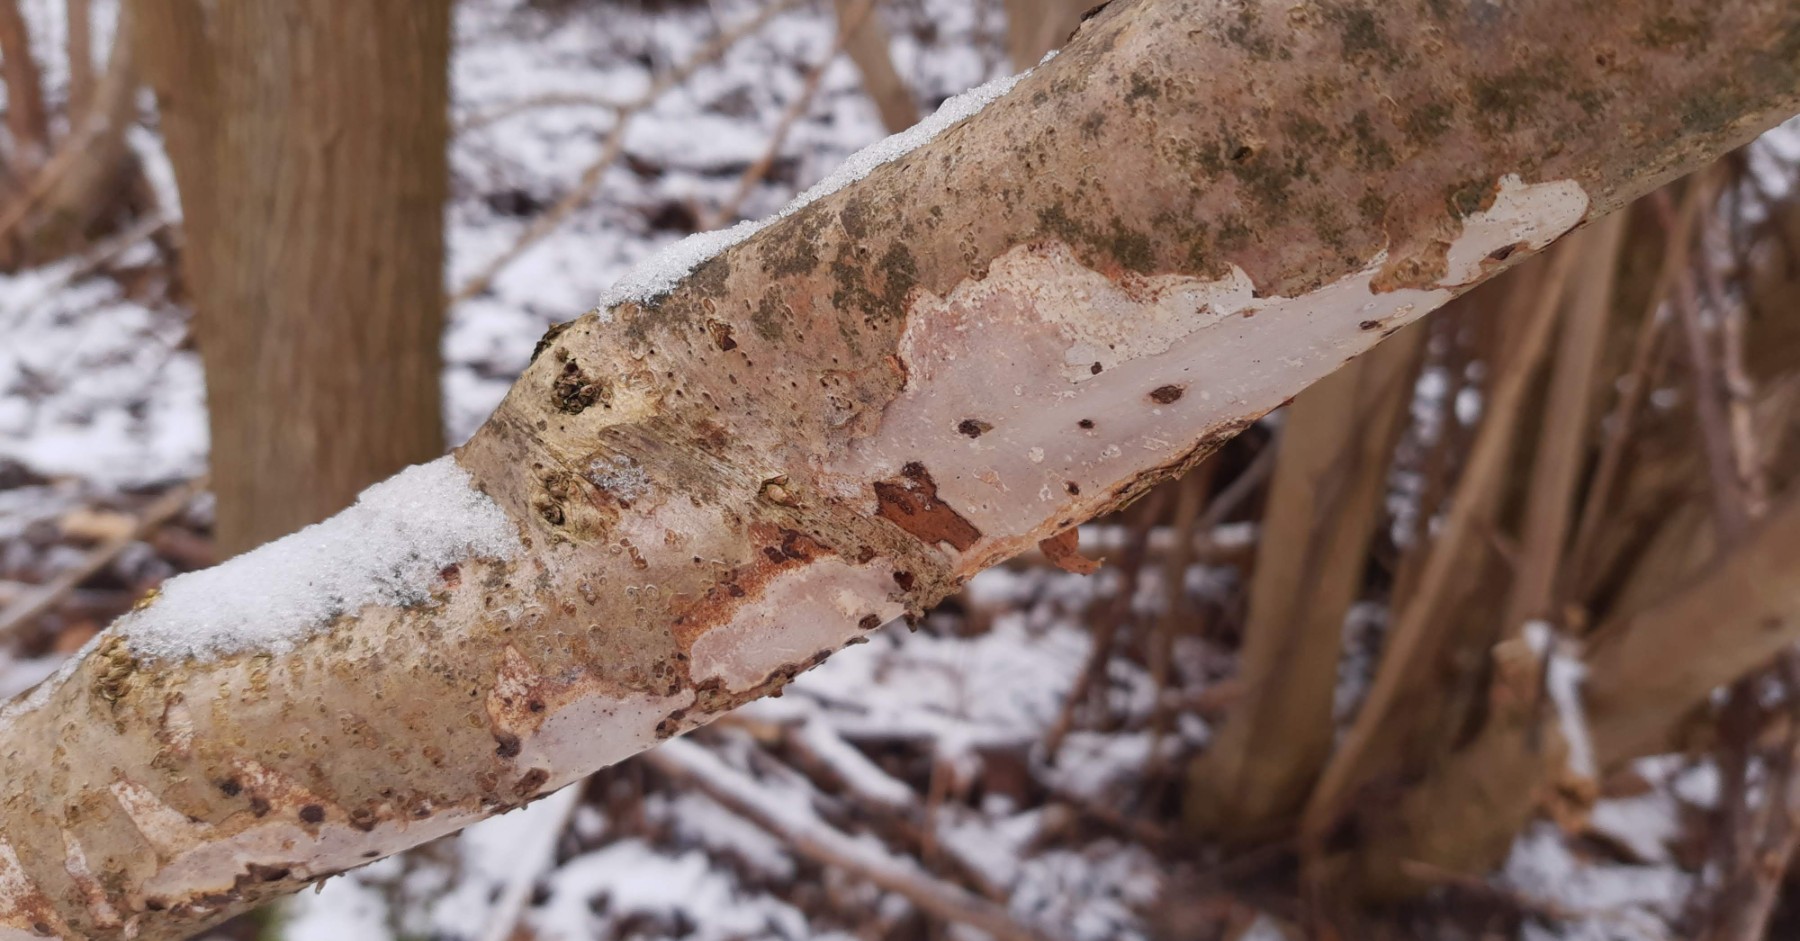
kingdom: Fungi
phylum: Basidiomycota
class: Agaricomycetes
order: Corticiales
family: Vuilleminiaceae
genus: Vuilleminia
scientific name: Vuilleminia coryli
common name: hassel-barksprænger
